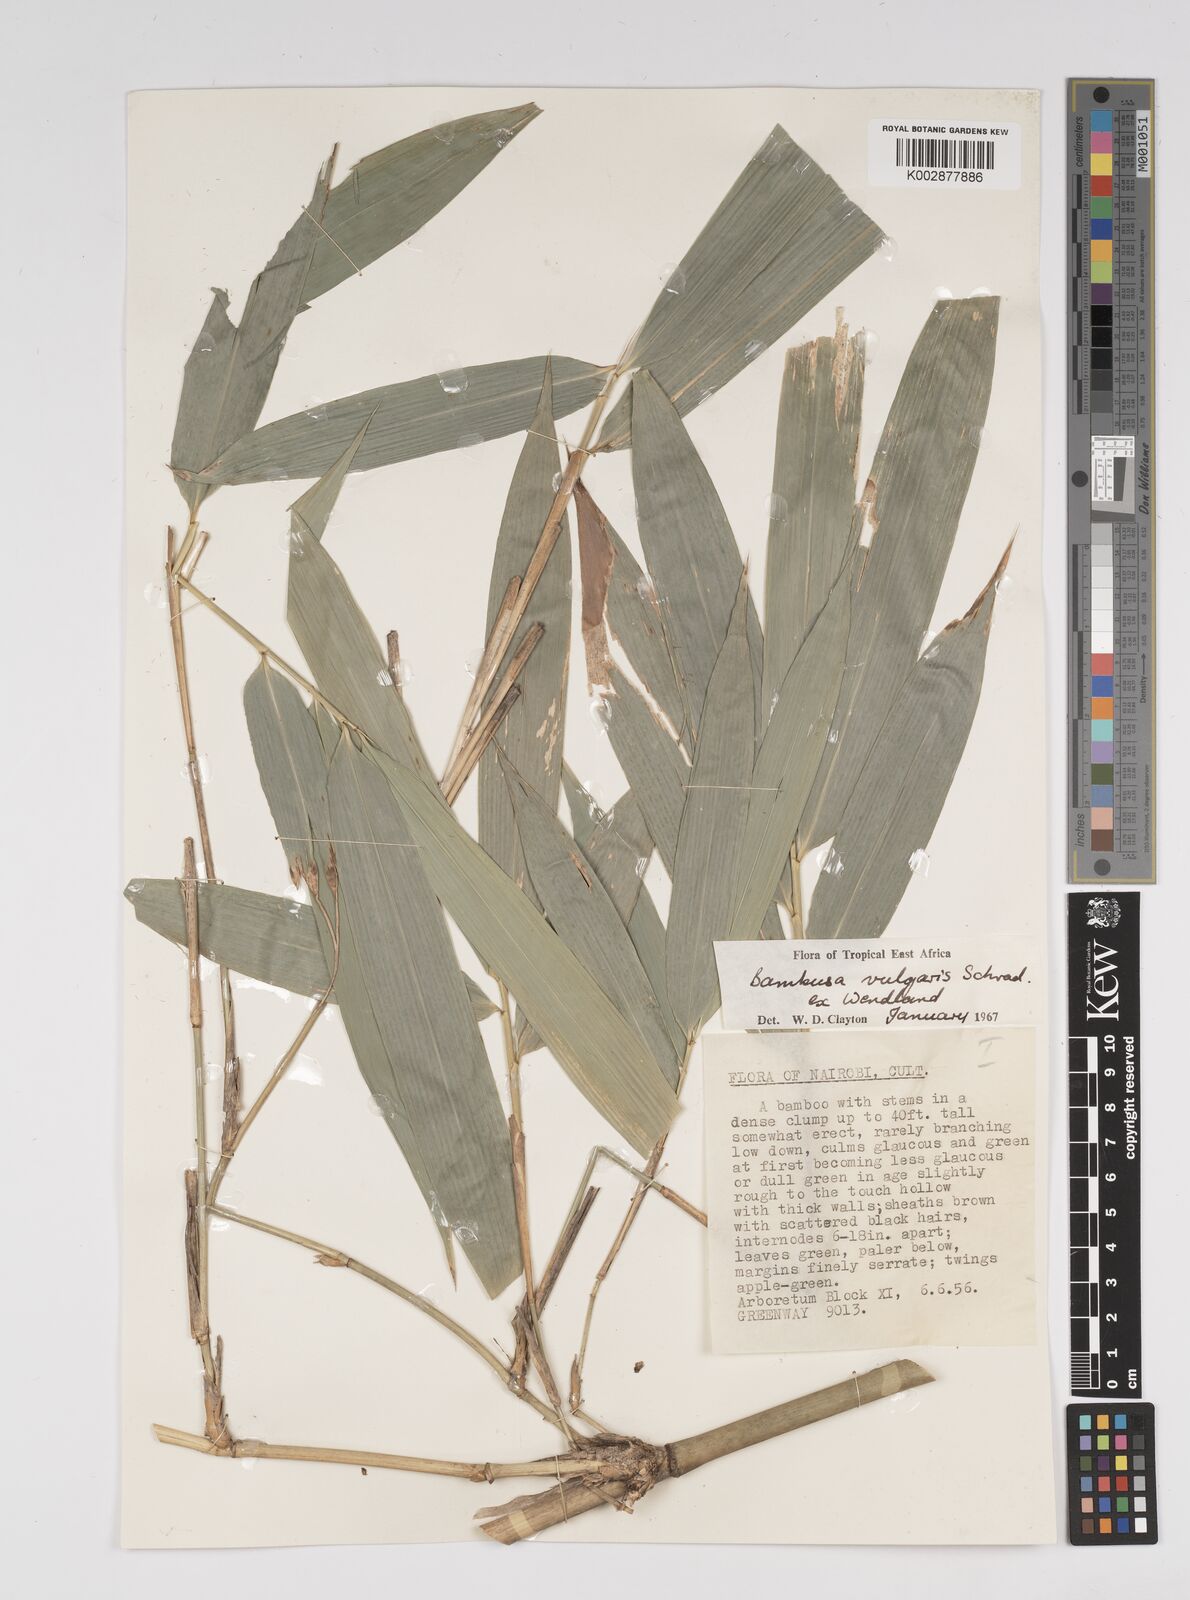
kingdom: Plantae
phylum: Tracheophyta
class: Liliopsida
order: Poales
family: Poaceae
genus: Bambusa
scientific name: Bambusa balcooa
